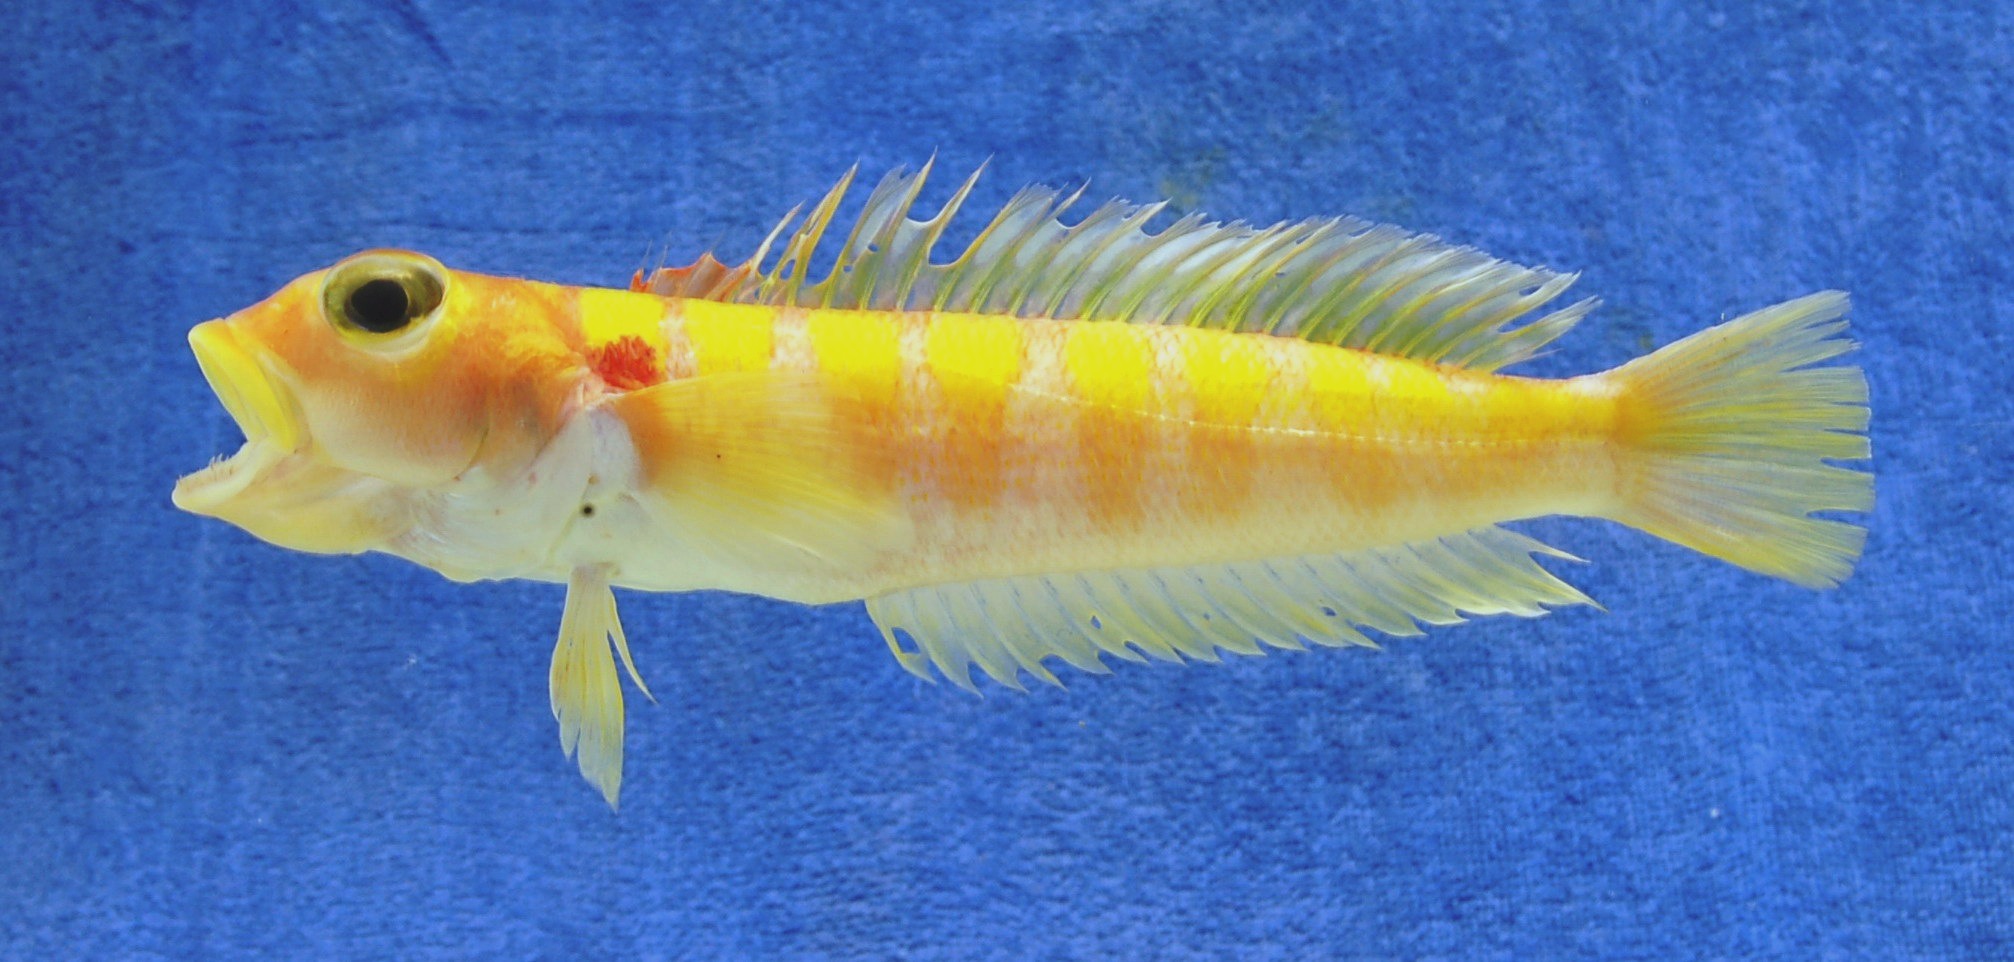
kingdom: Animalia
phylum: Chordata
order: Perciformes
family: Pinguipedidae
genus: Parapercis
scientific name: Parapercis maritzi
